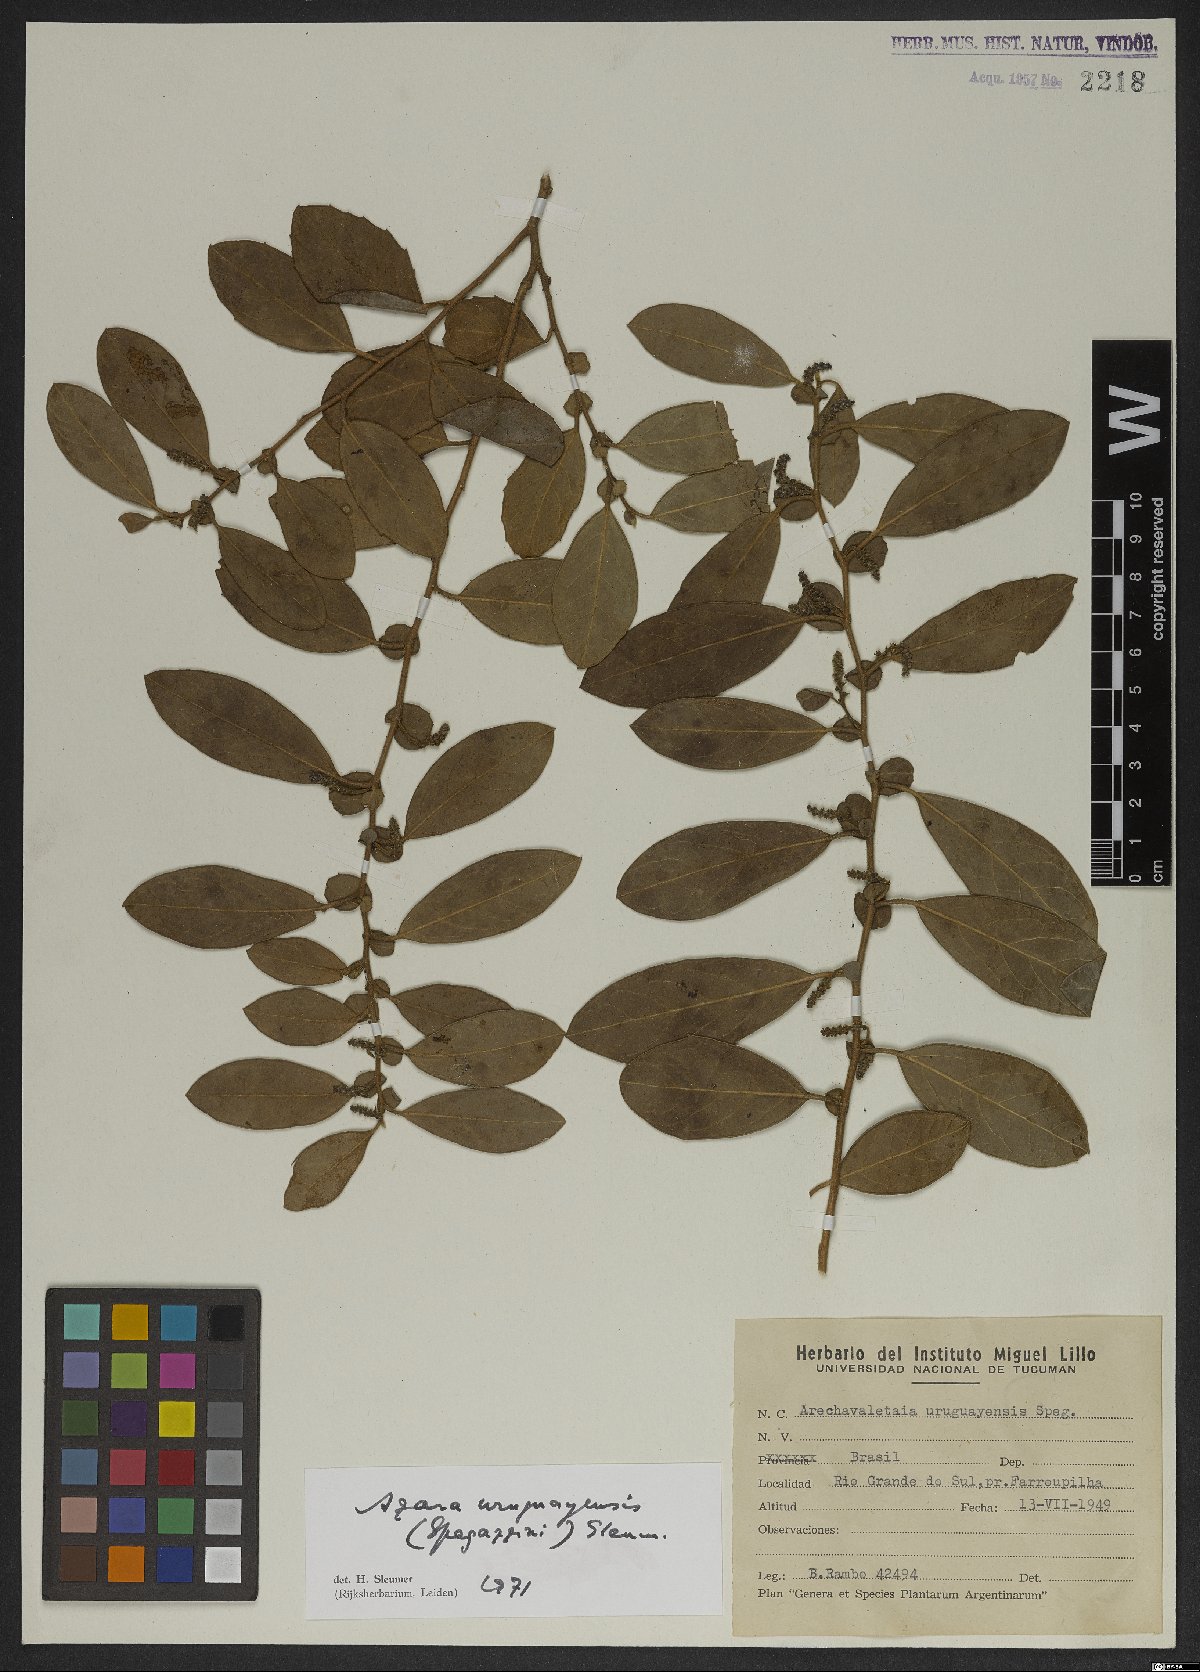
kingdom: Plantae
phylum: Tracheophyta
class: Magnoliopsida
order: Malpighiales
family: Salicaceae
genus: Azara
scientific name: Azara uruguayensis
